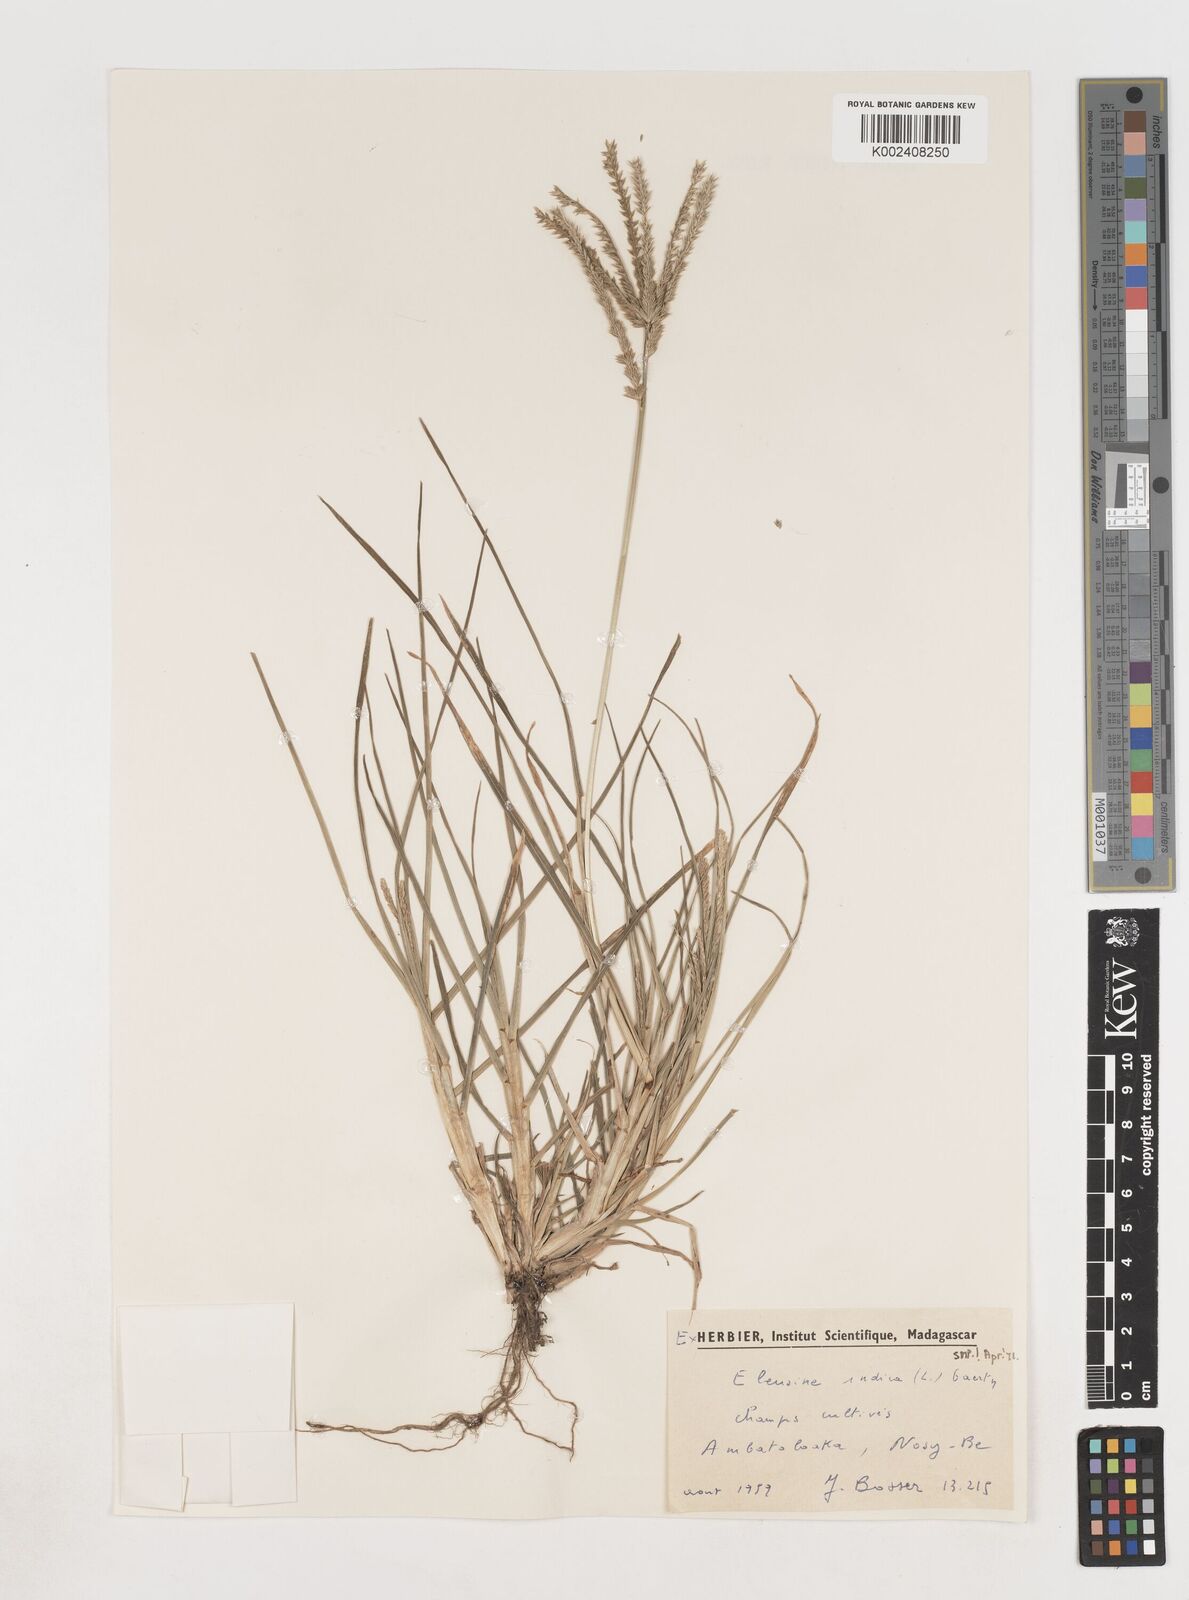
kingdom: Plantae
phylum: Tracheophyta
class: Liliopsida
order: Poales
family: Poaceae
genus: Eleusine
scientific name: Eleusine indica
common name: Yard-grass
